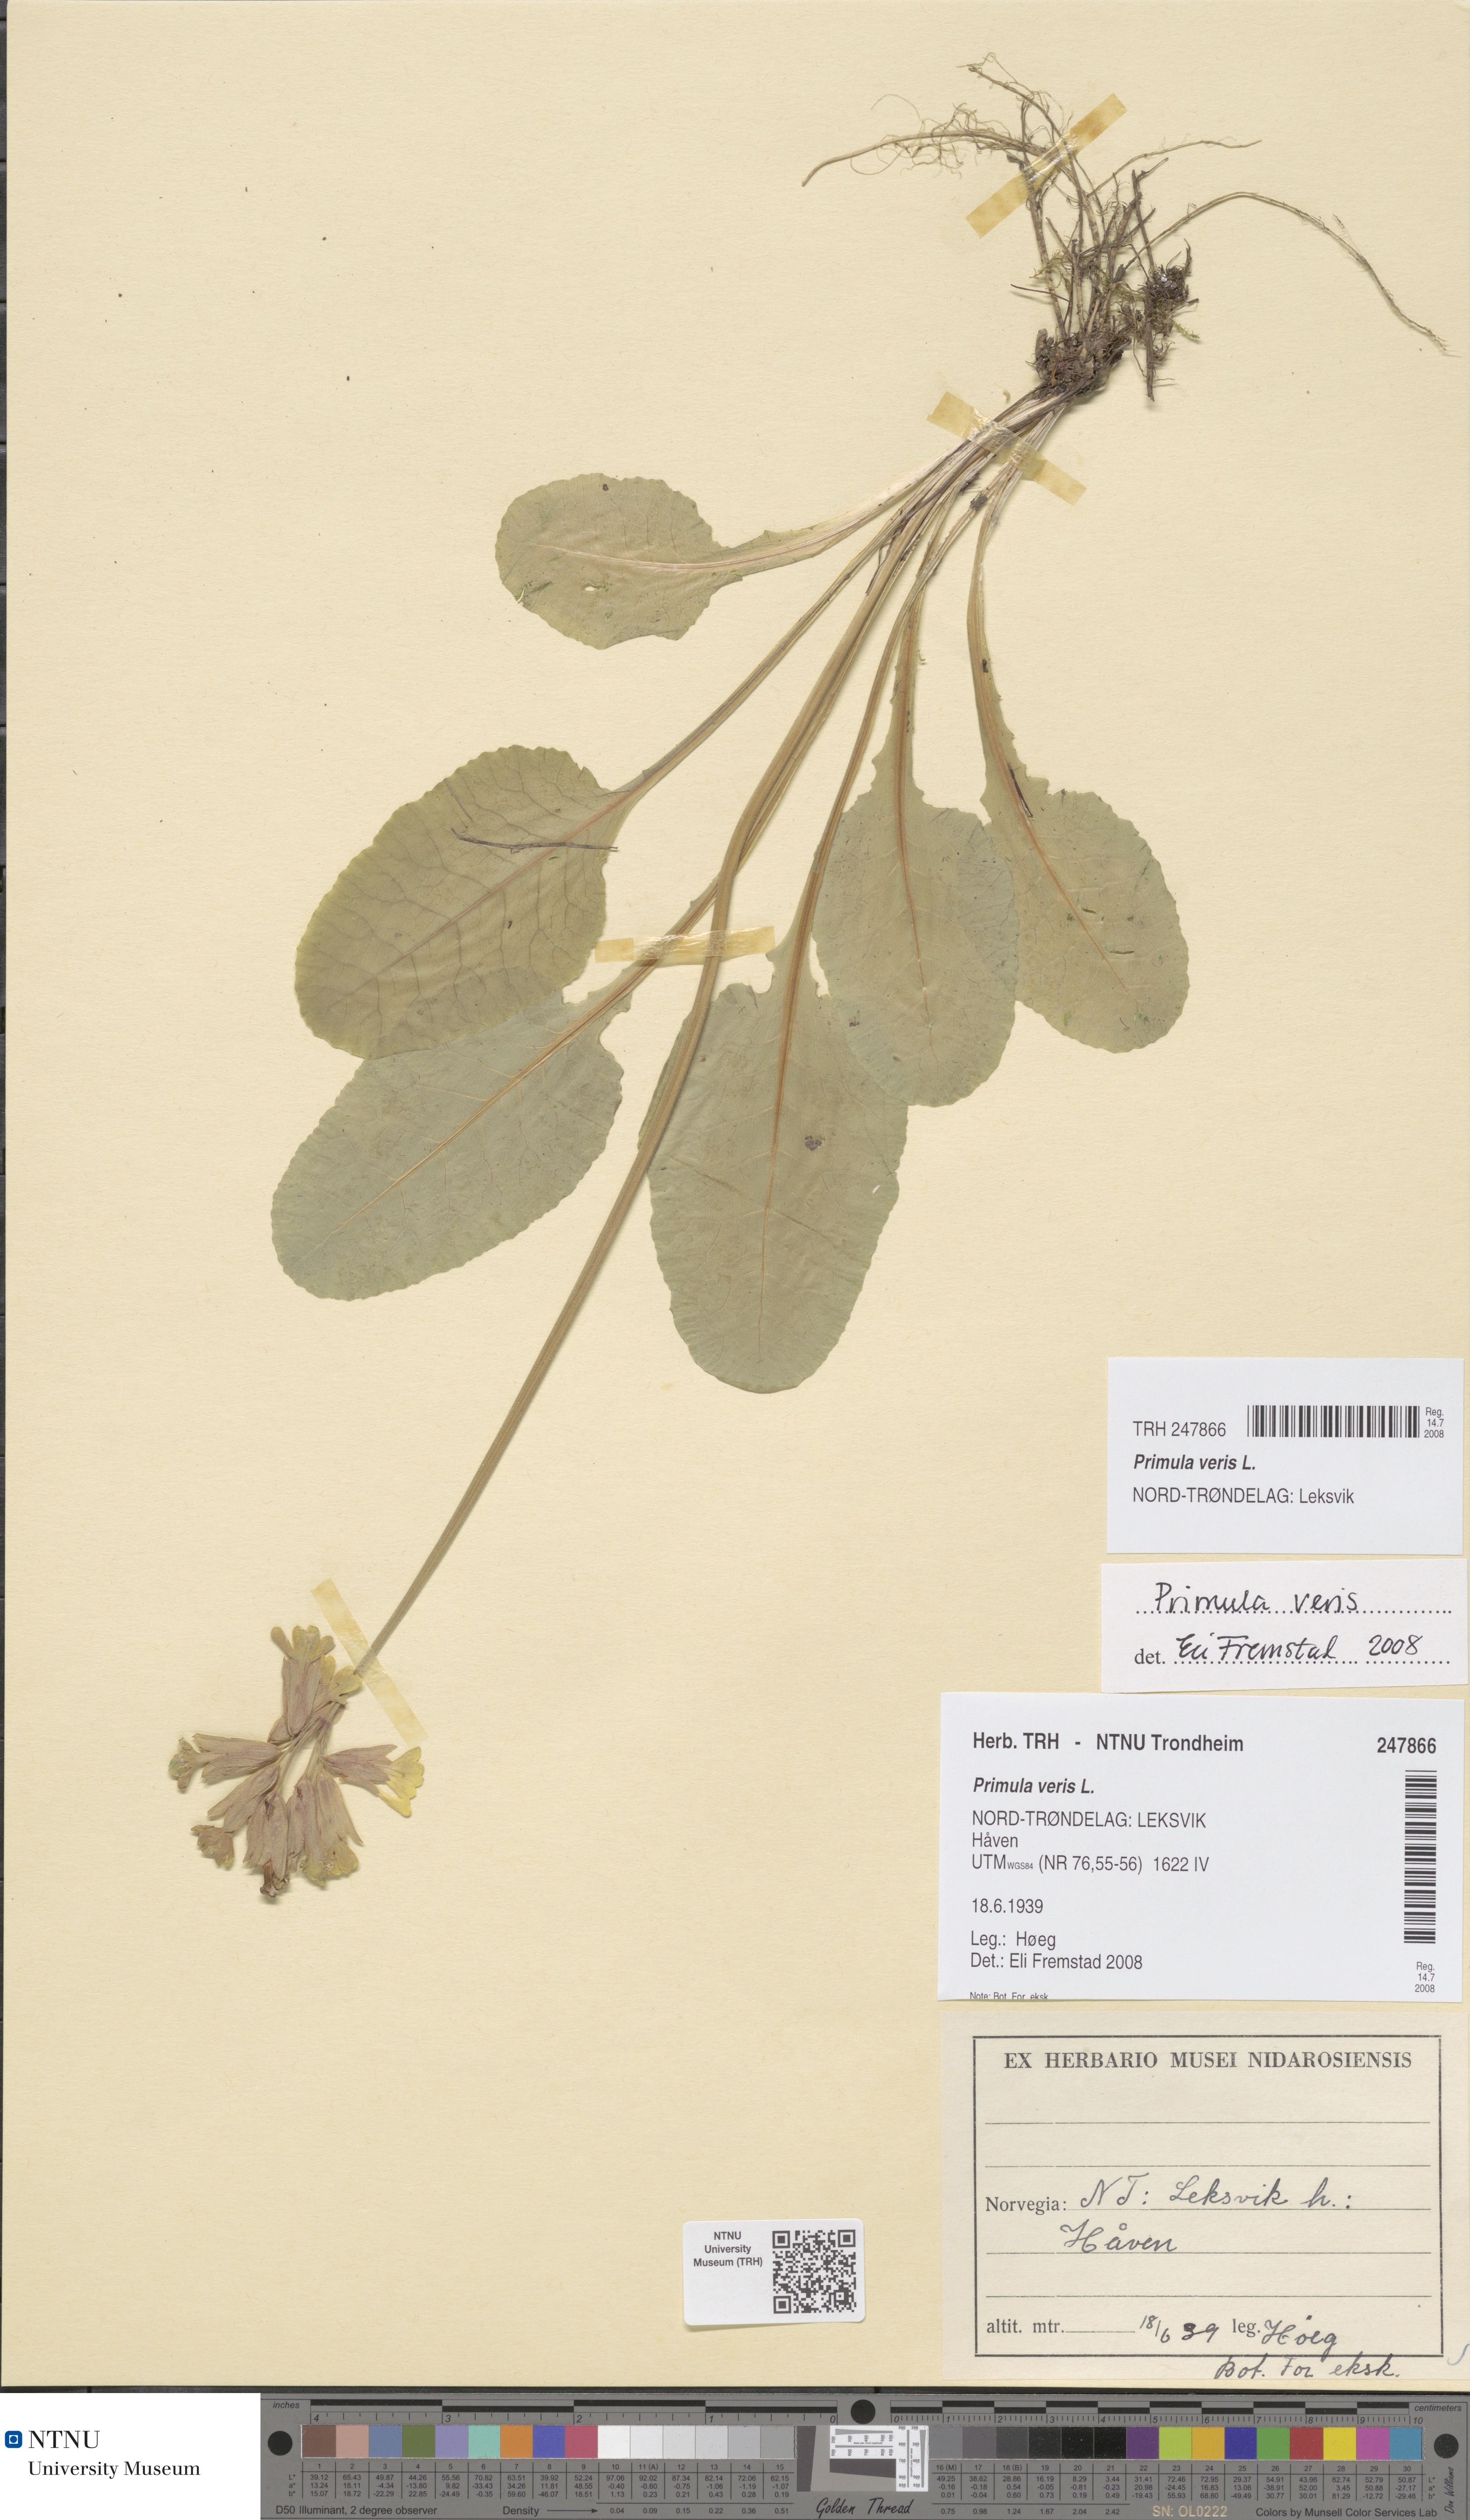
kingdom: Plantae
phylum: Tracheophyta
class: Magnoliopsida
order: Ericales
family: Primulaceae
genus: Primula
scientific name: Primula veris
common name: Cowslip
